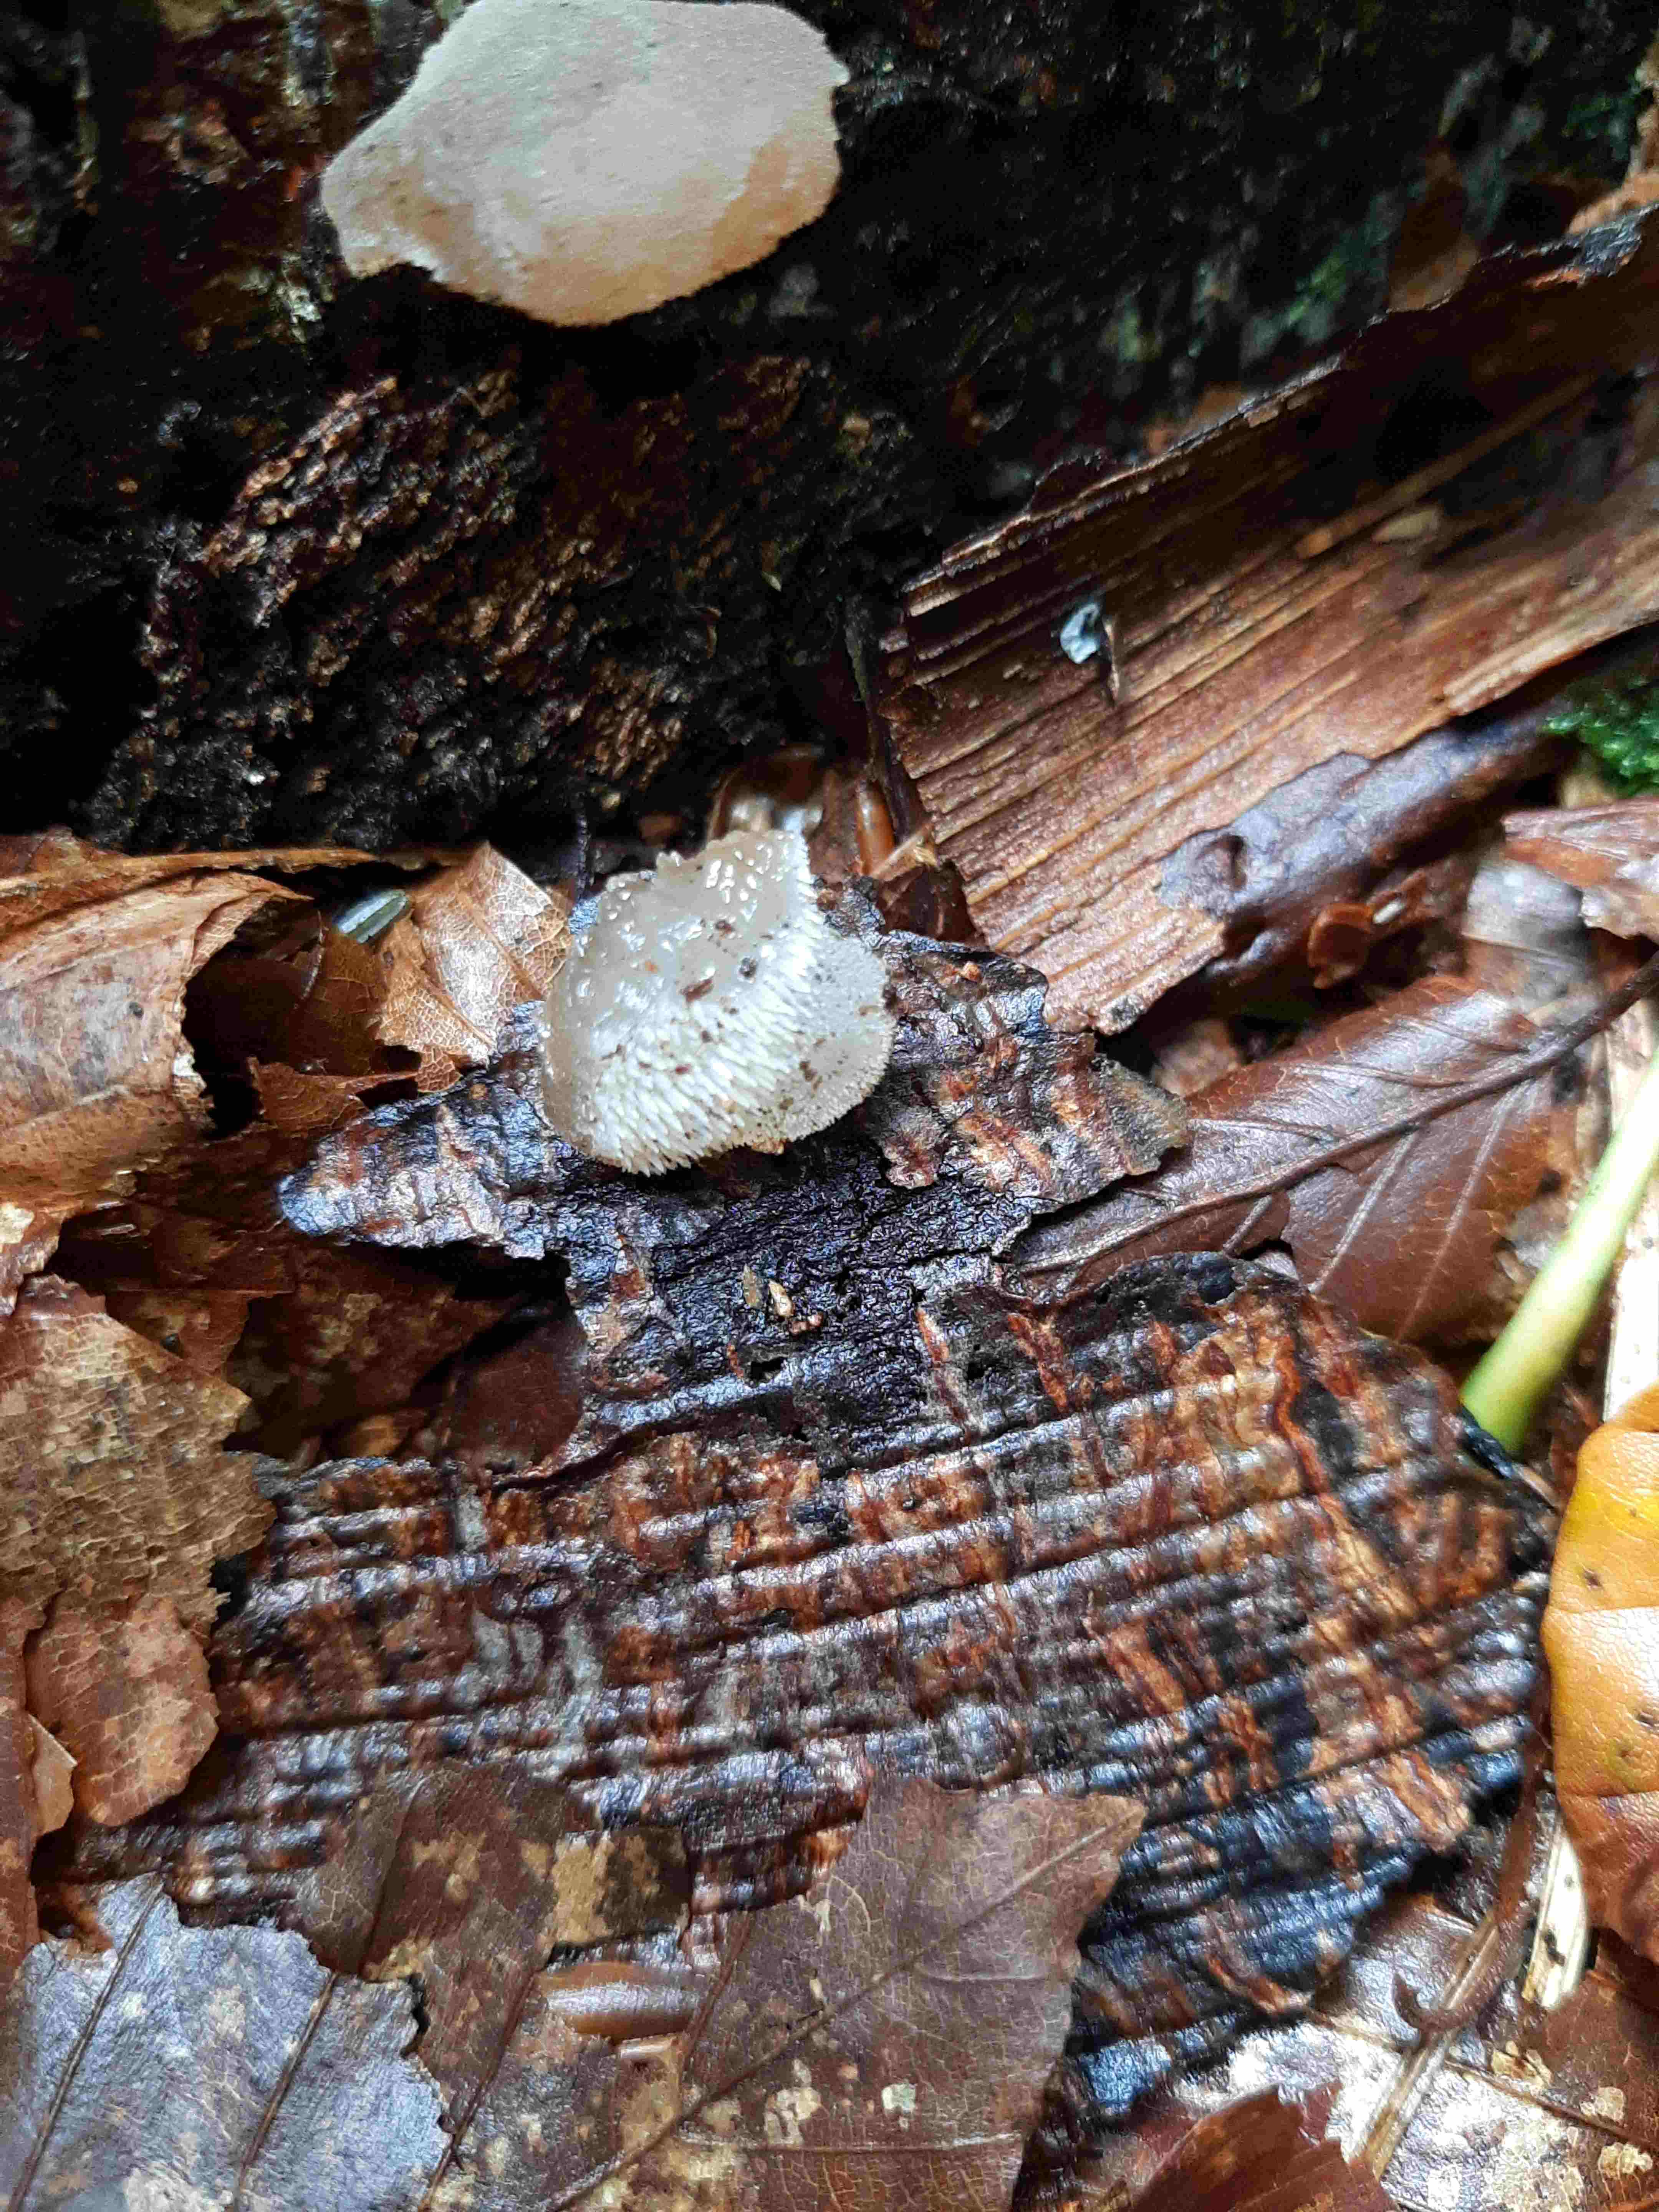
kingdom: Fungi
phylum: Basidiomycota
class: Agaricomycetes
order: Auriculariales
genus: Pseudohydnum
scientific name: Pseudohydnum gelatinosum
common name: bævretand
